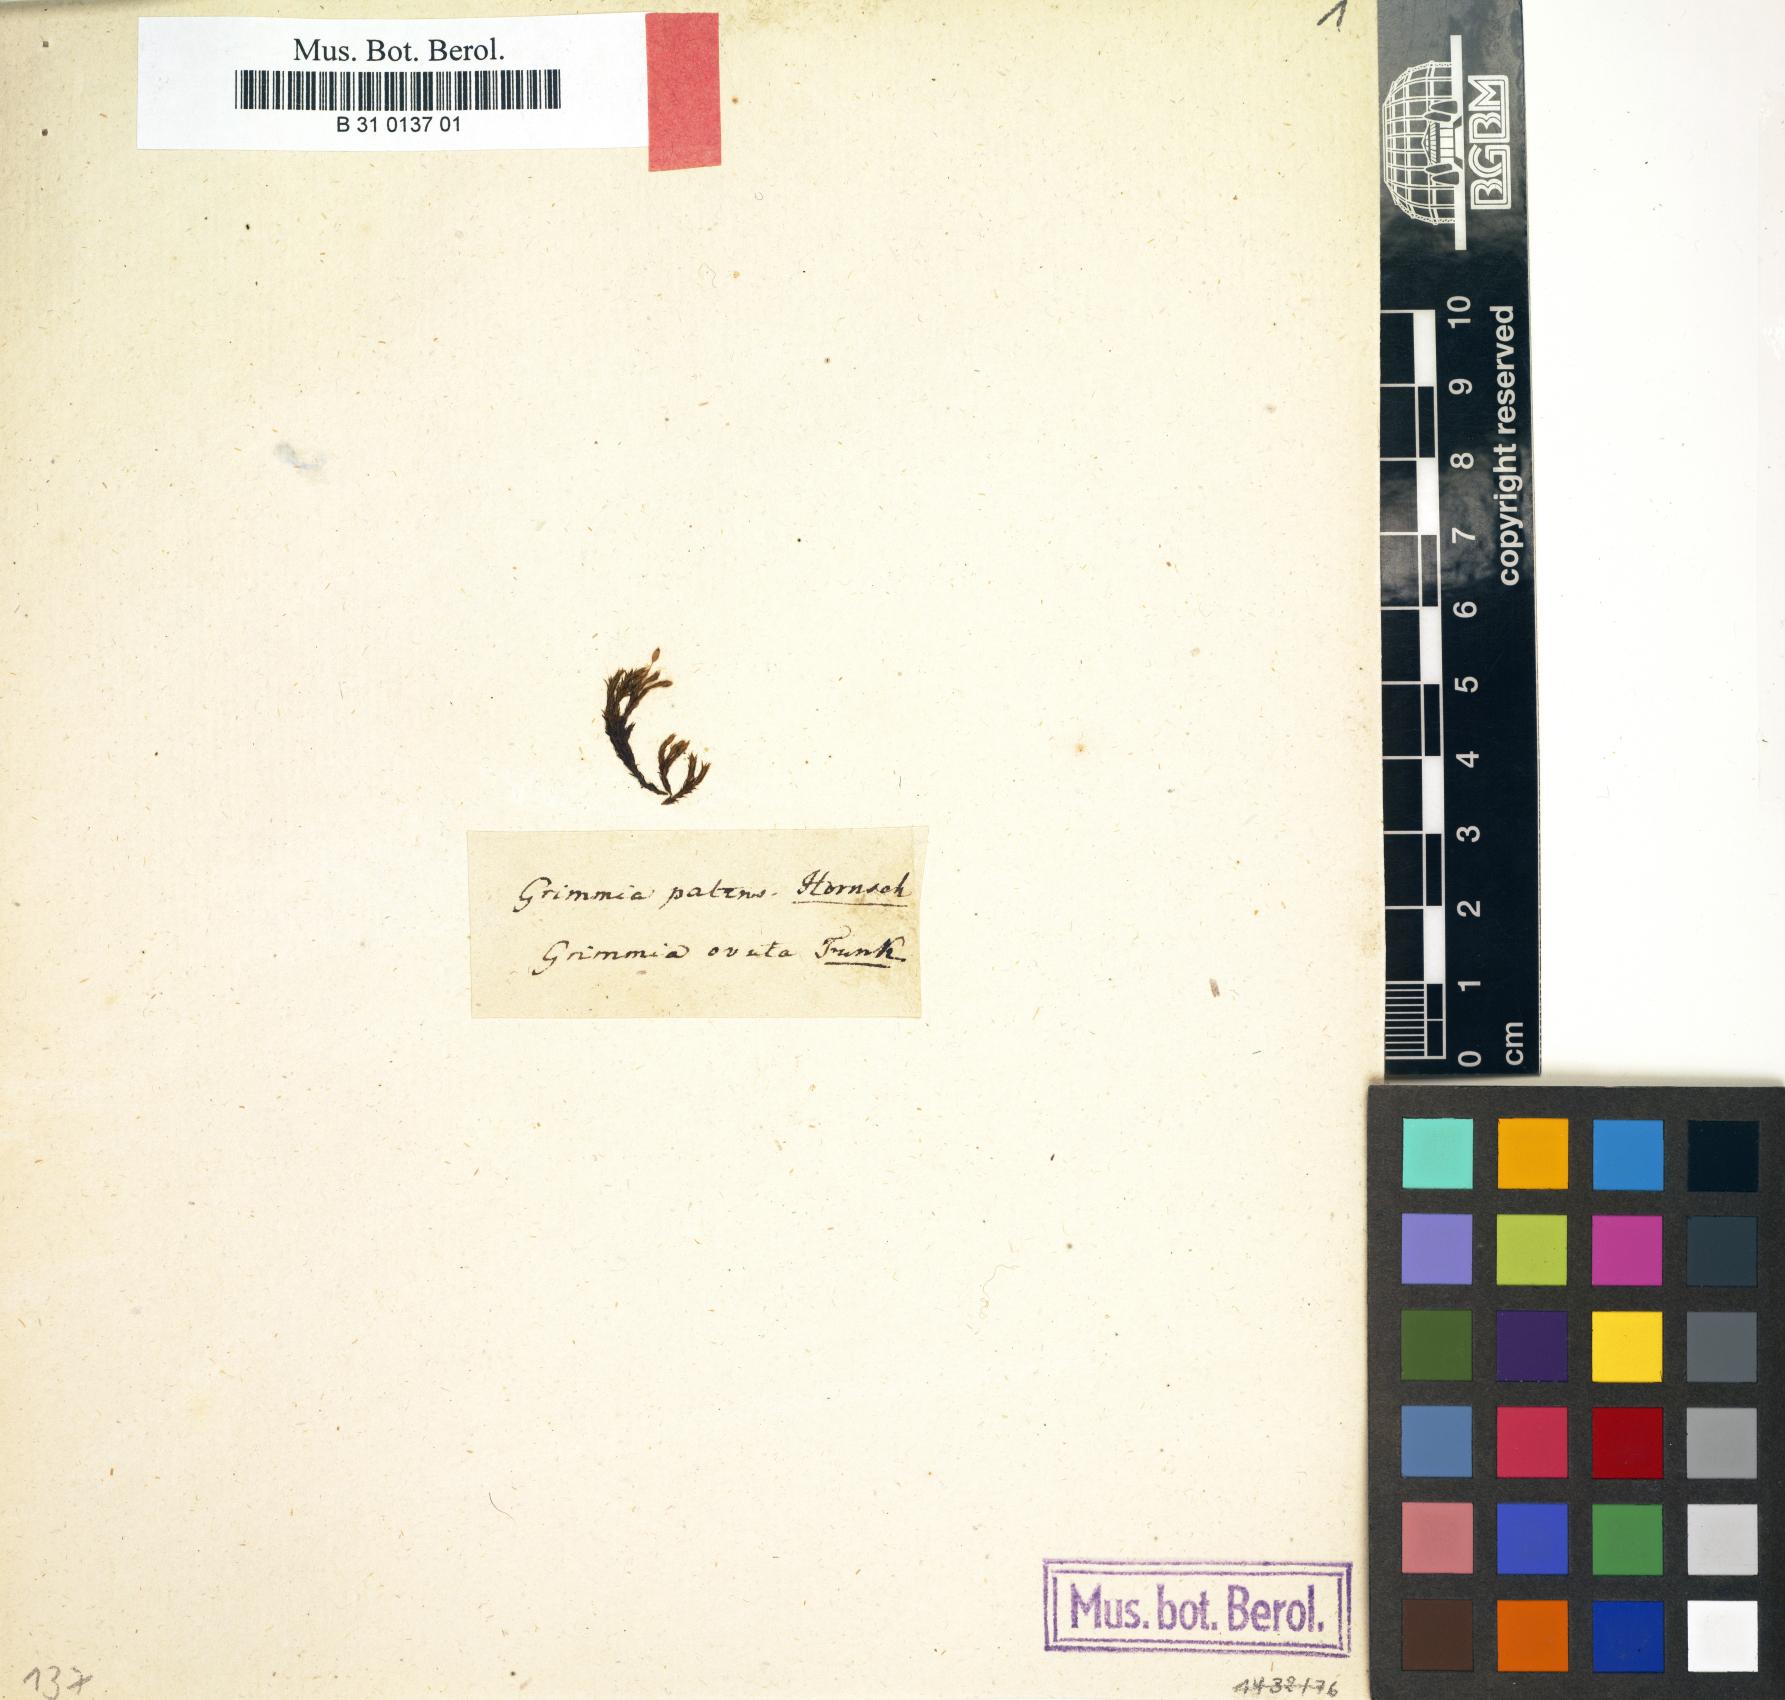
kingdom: Plantae
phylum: Bryophyta
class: Bryopsida
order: Grimmiales
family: Grimmiaceae
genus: Grimmia
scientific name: Grimmia
